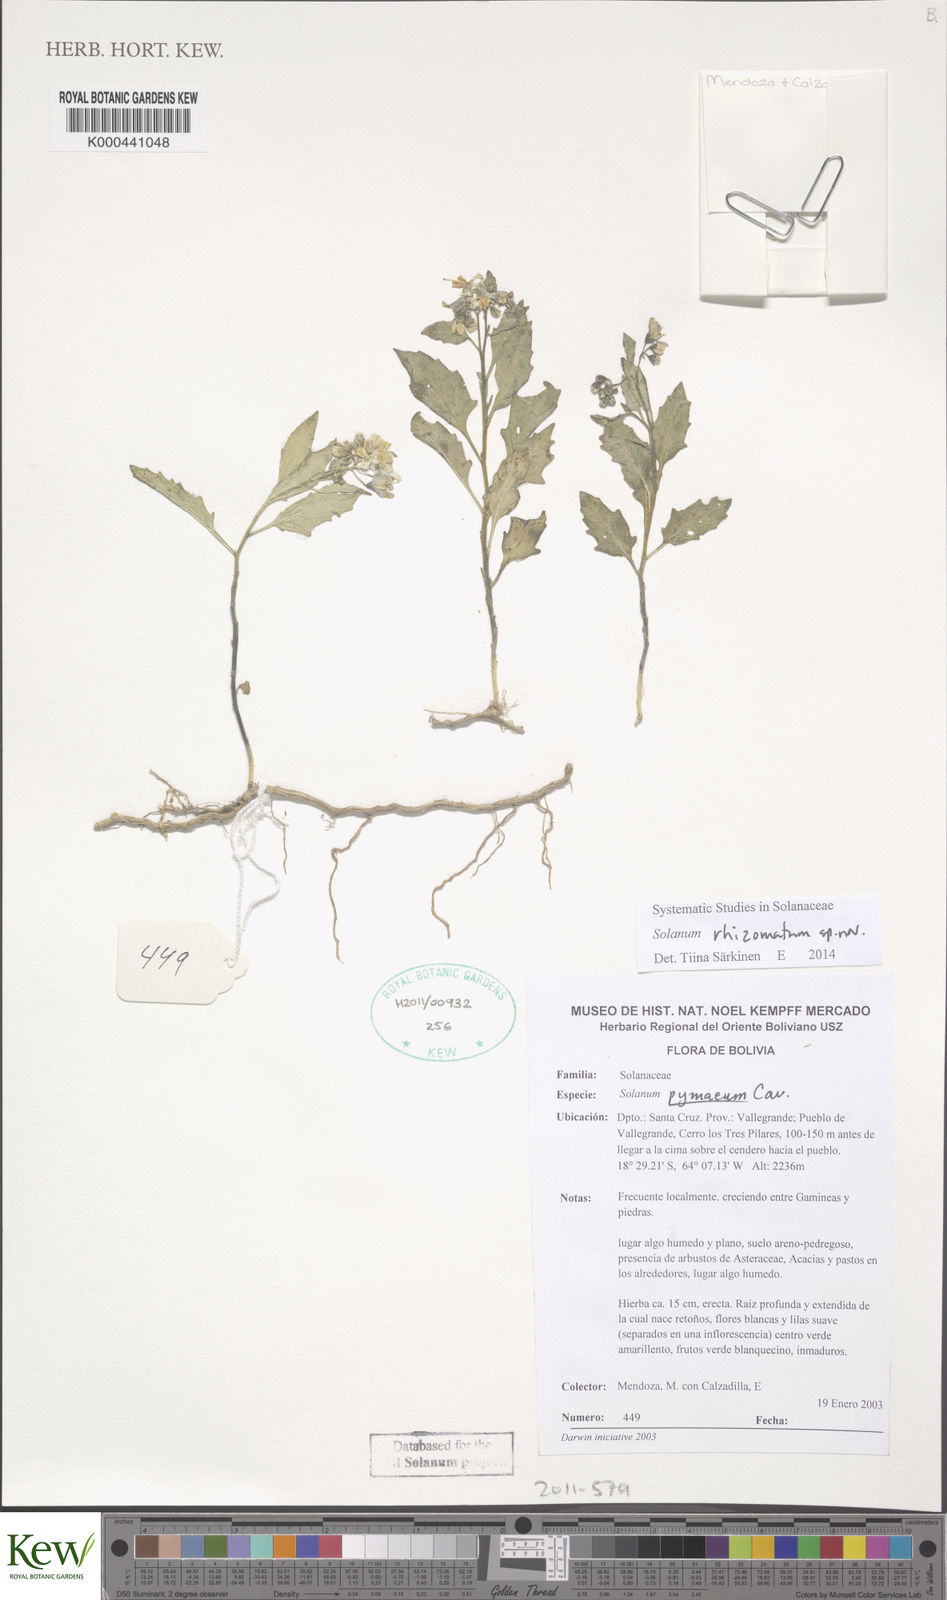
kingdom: Plantae
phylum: Tracheophyta
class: Magnoliopsida
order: Solanales
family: Solanaceae
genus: Solanum
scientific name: Solanum
